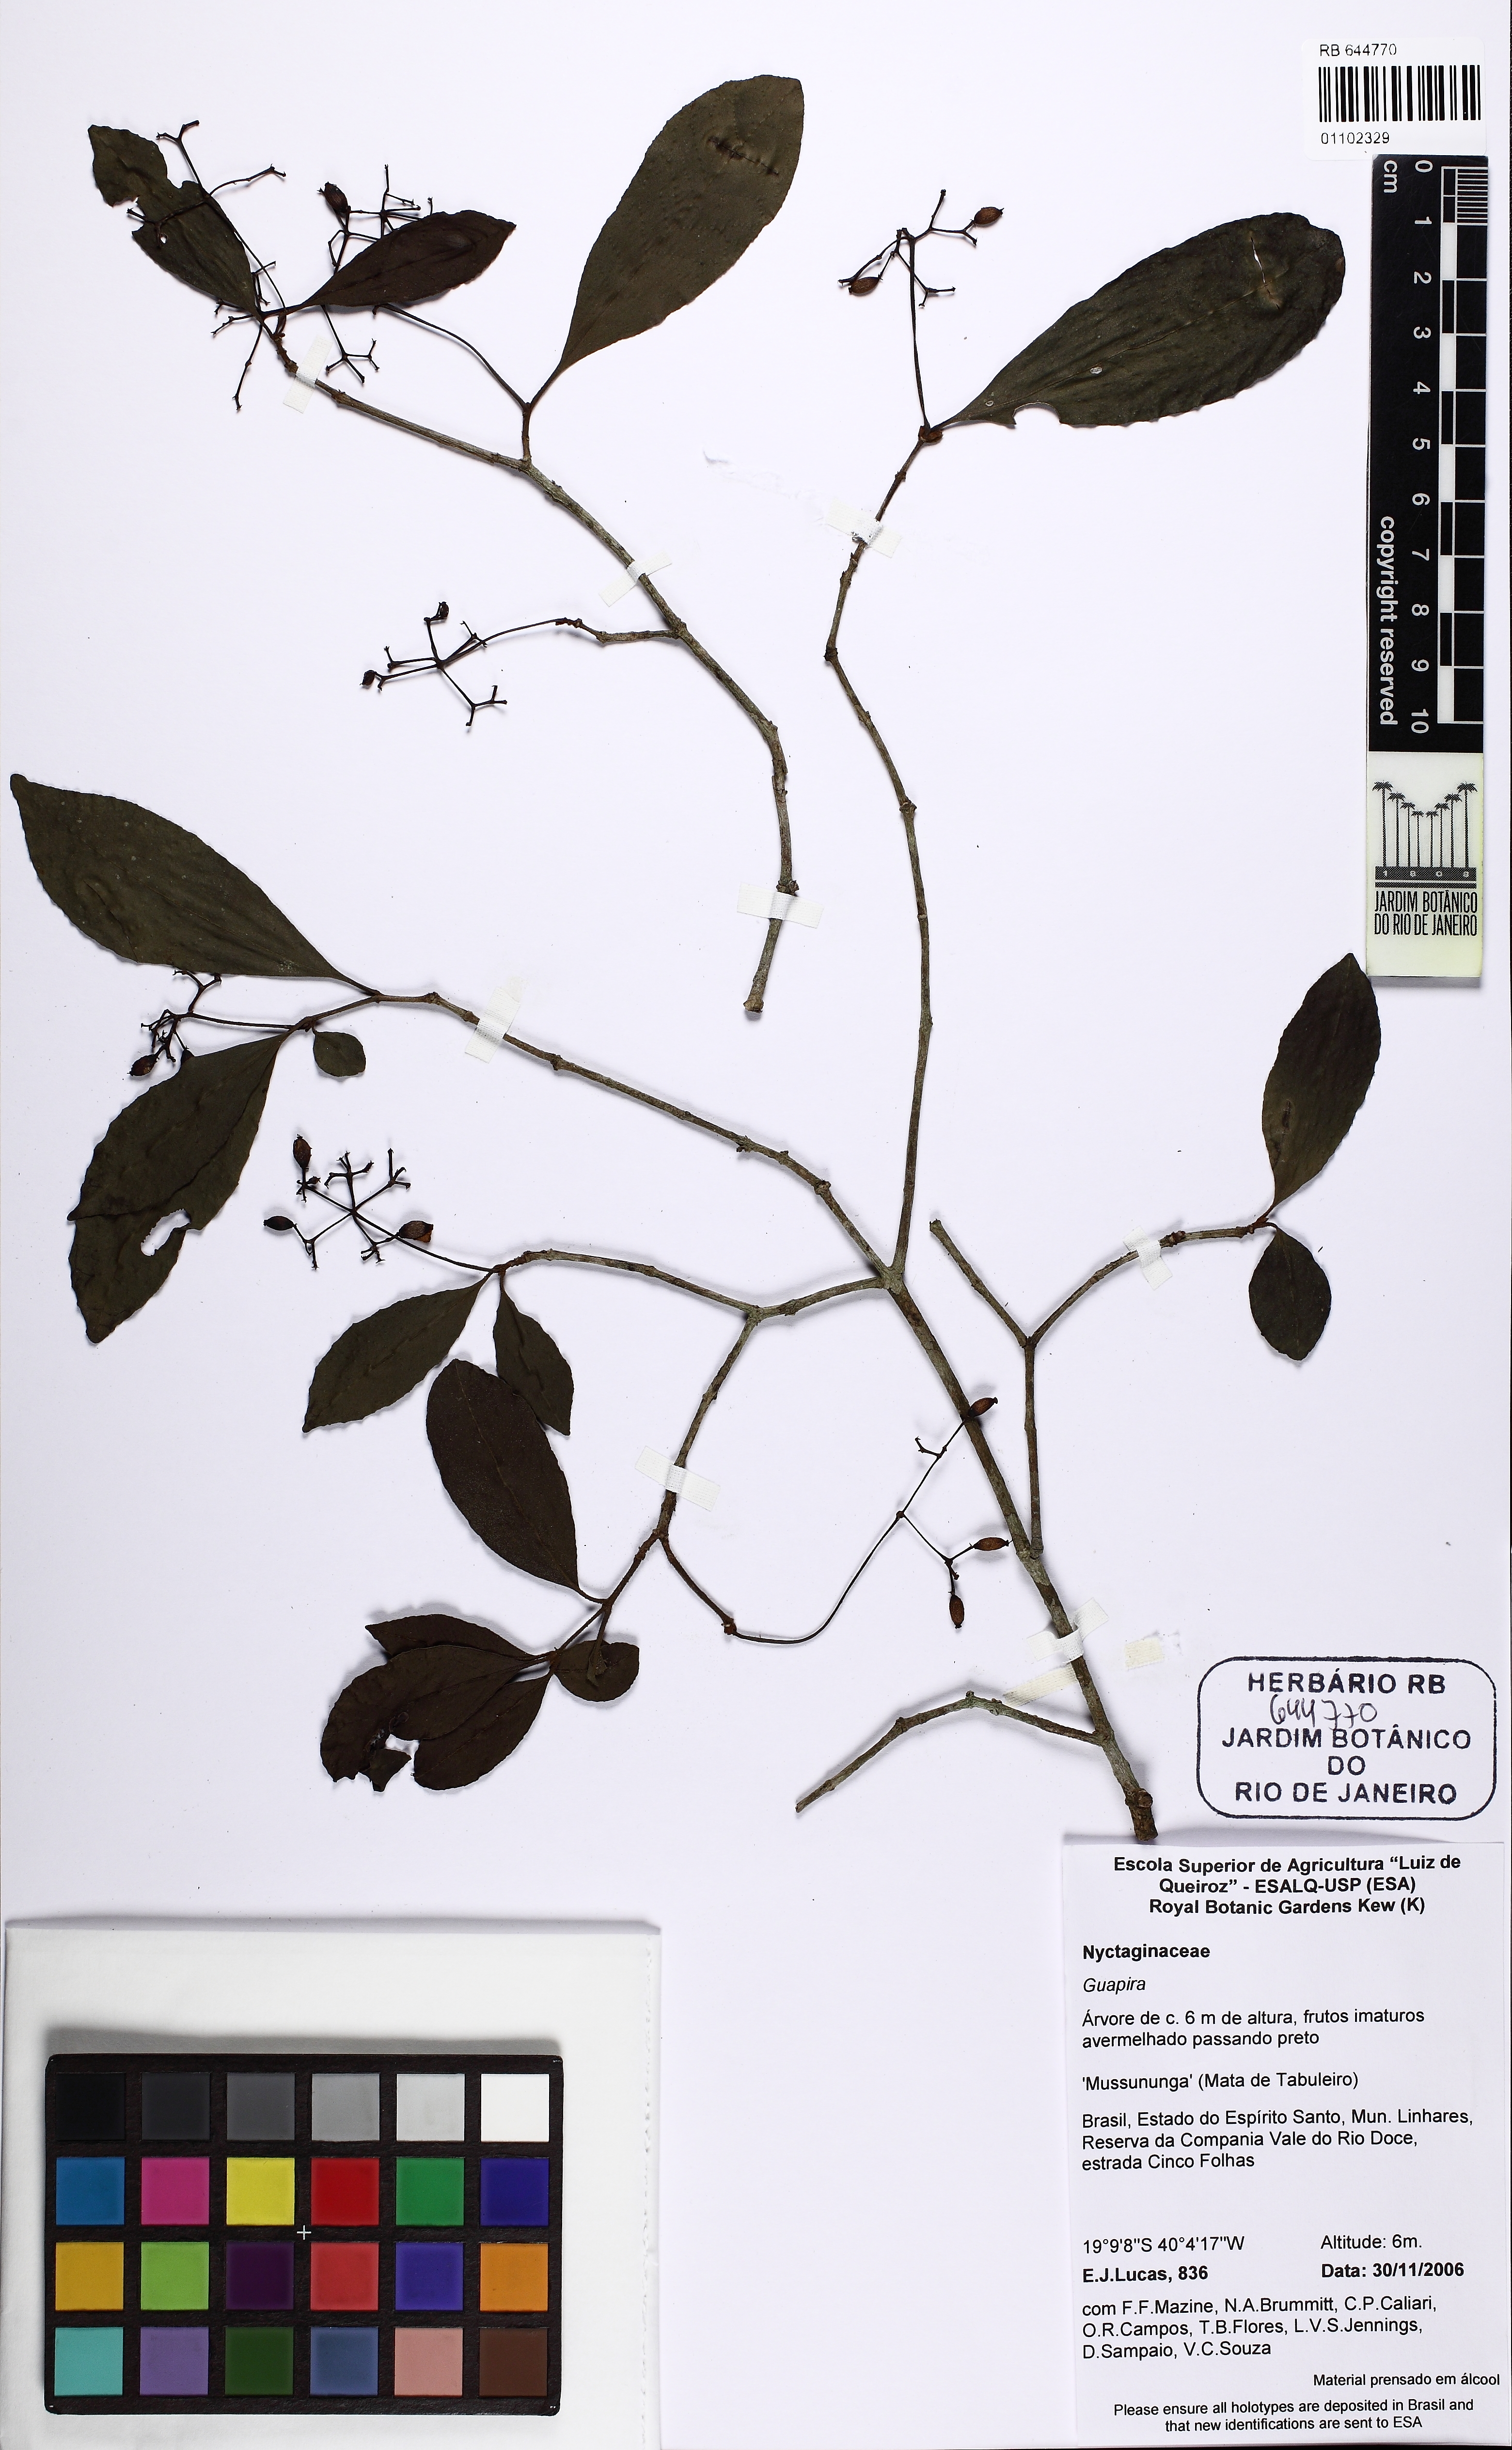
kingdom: Plantae
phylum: Tracheophyta
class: Magnoliopsida
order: Caryophyllales
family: Nyctaginaceae
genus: Guapira
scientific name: Guapira
